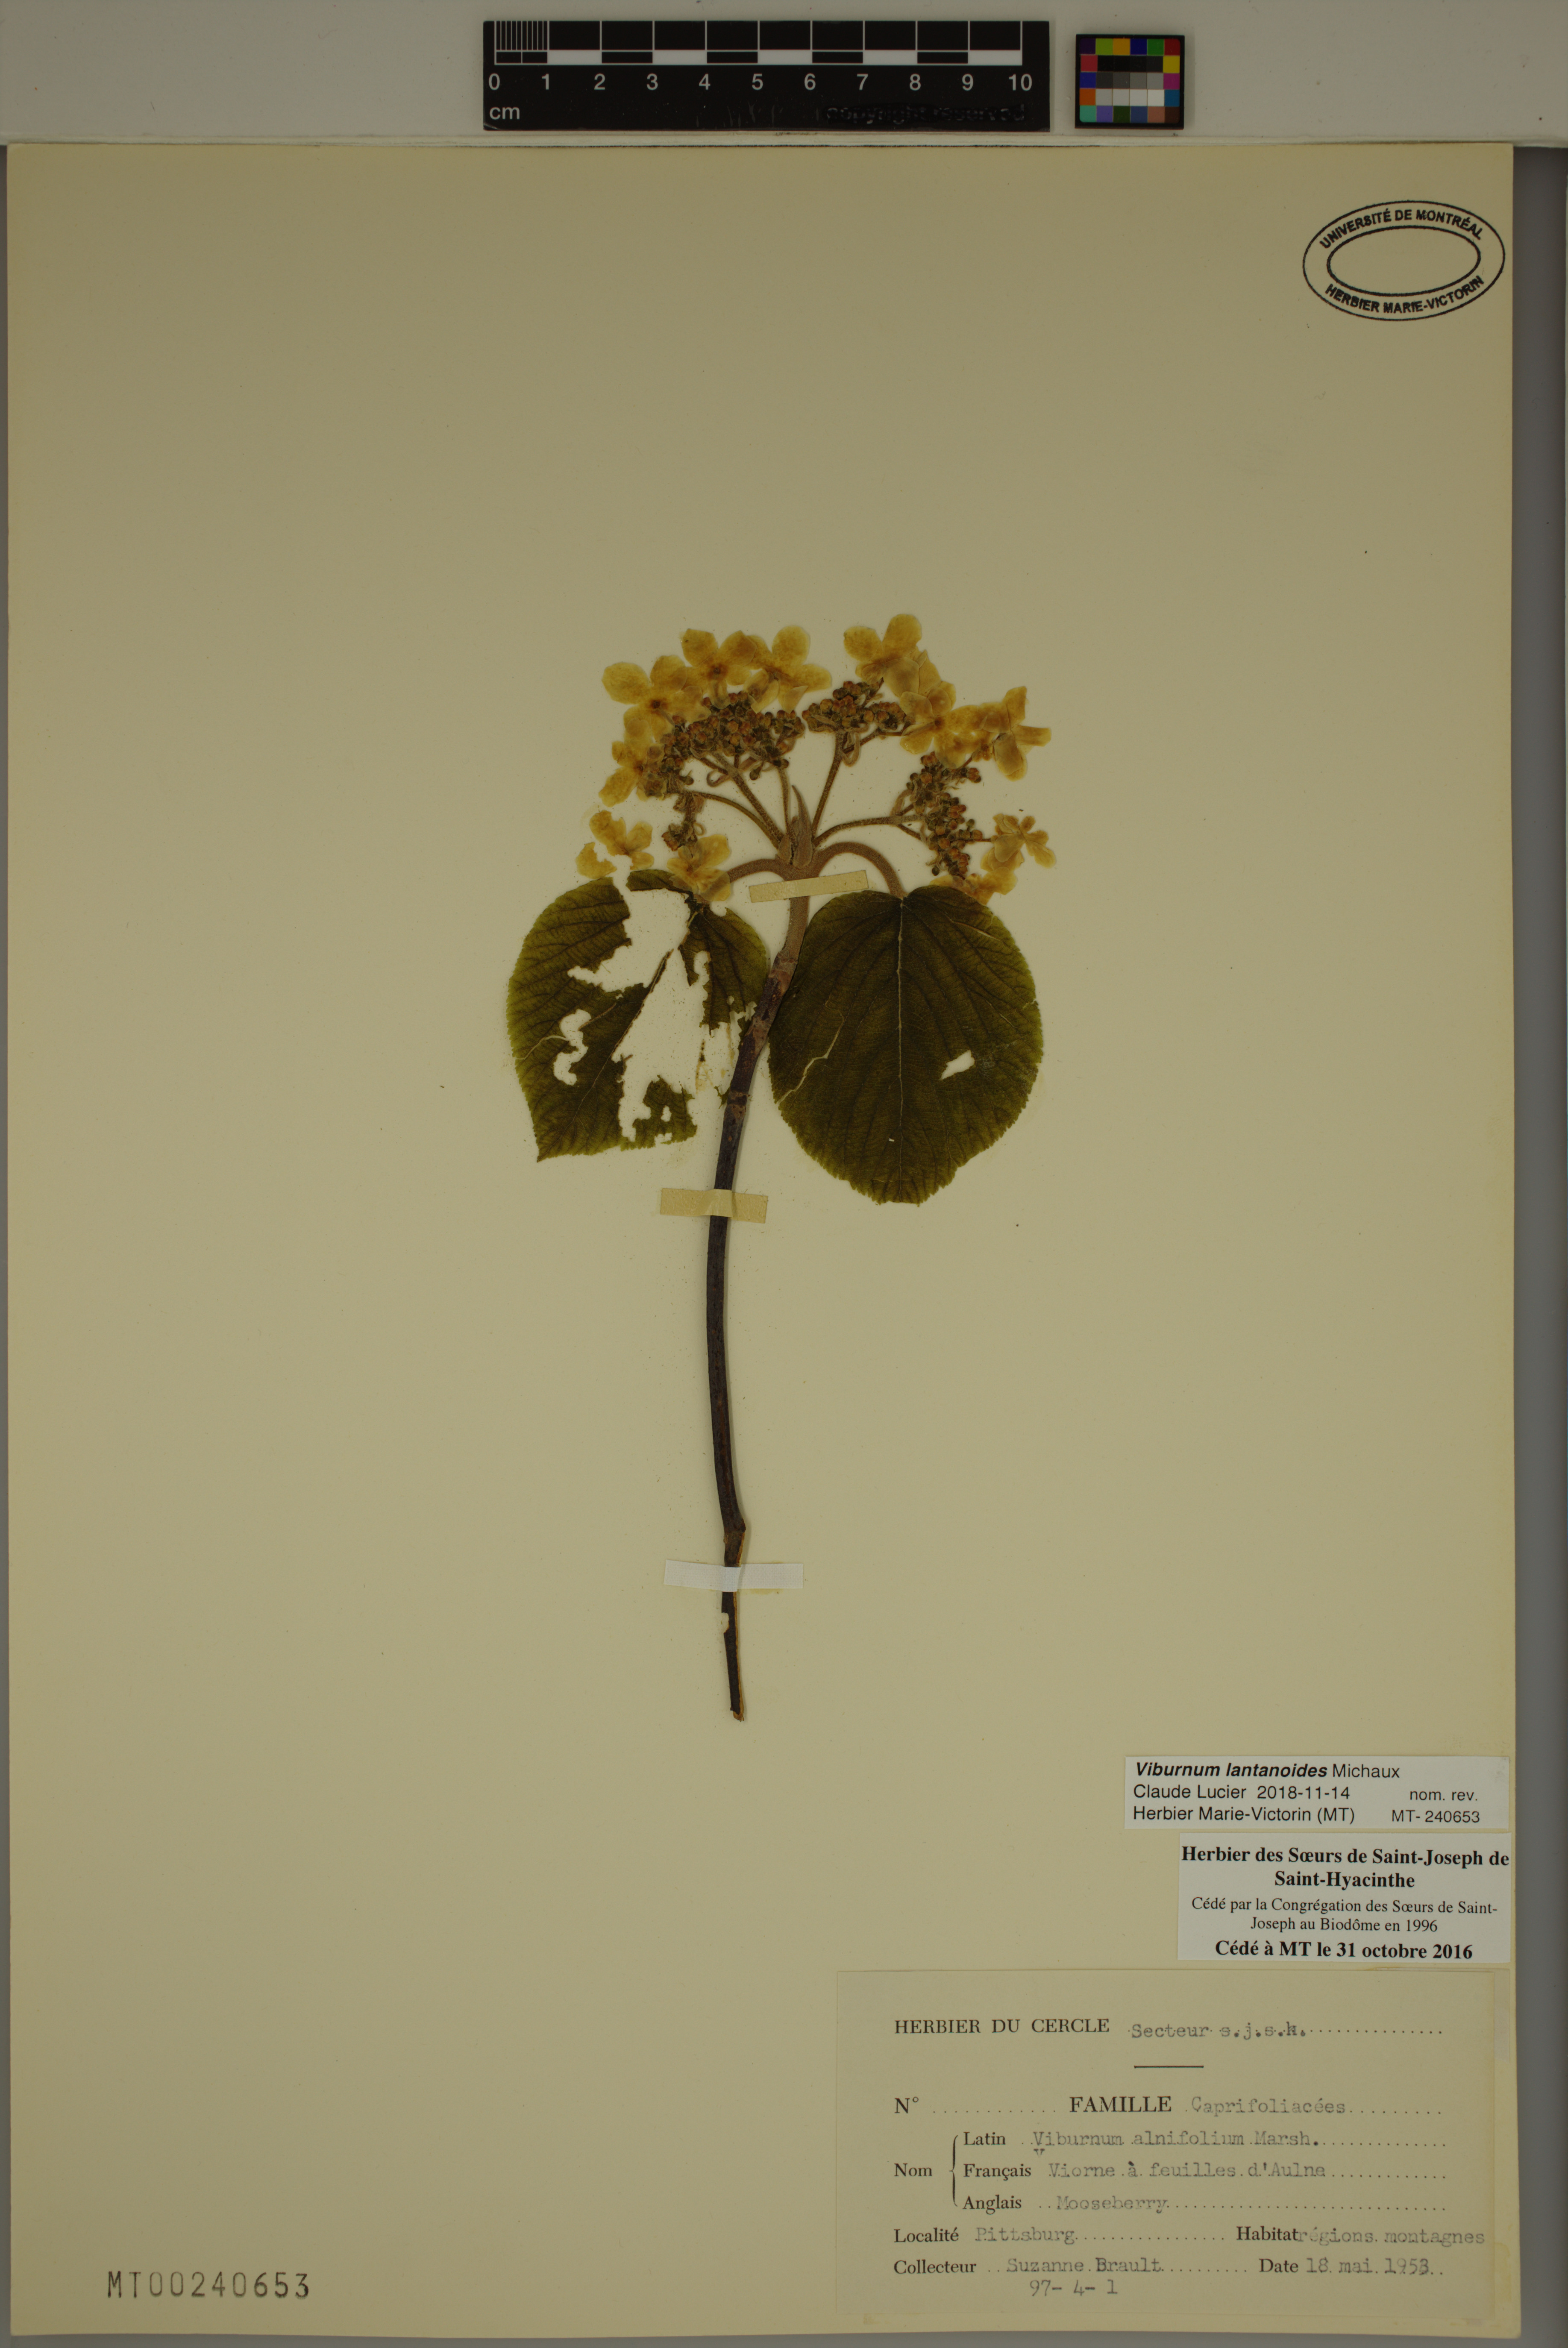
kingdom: Plantae
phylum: Tracheophyta
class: Magnoliopsida
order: Dipsacales
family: Viburnaceae
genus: Viburnum
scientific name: Viburnum lantanoides
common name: Hobblebush
